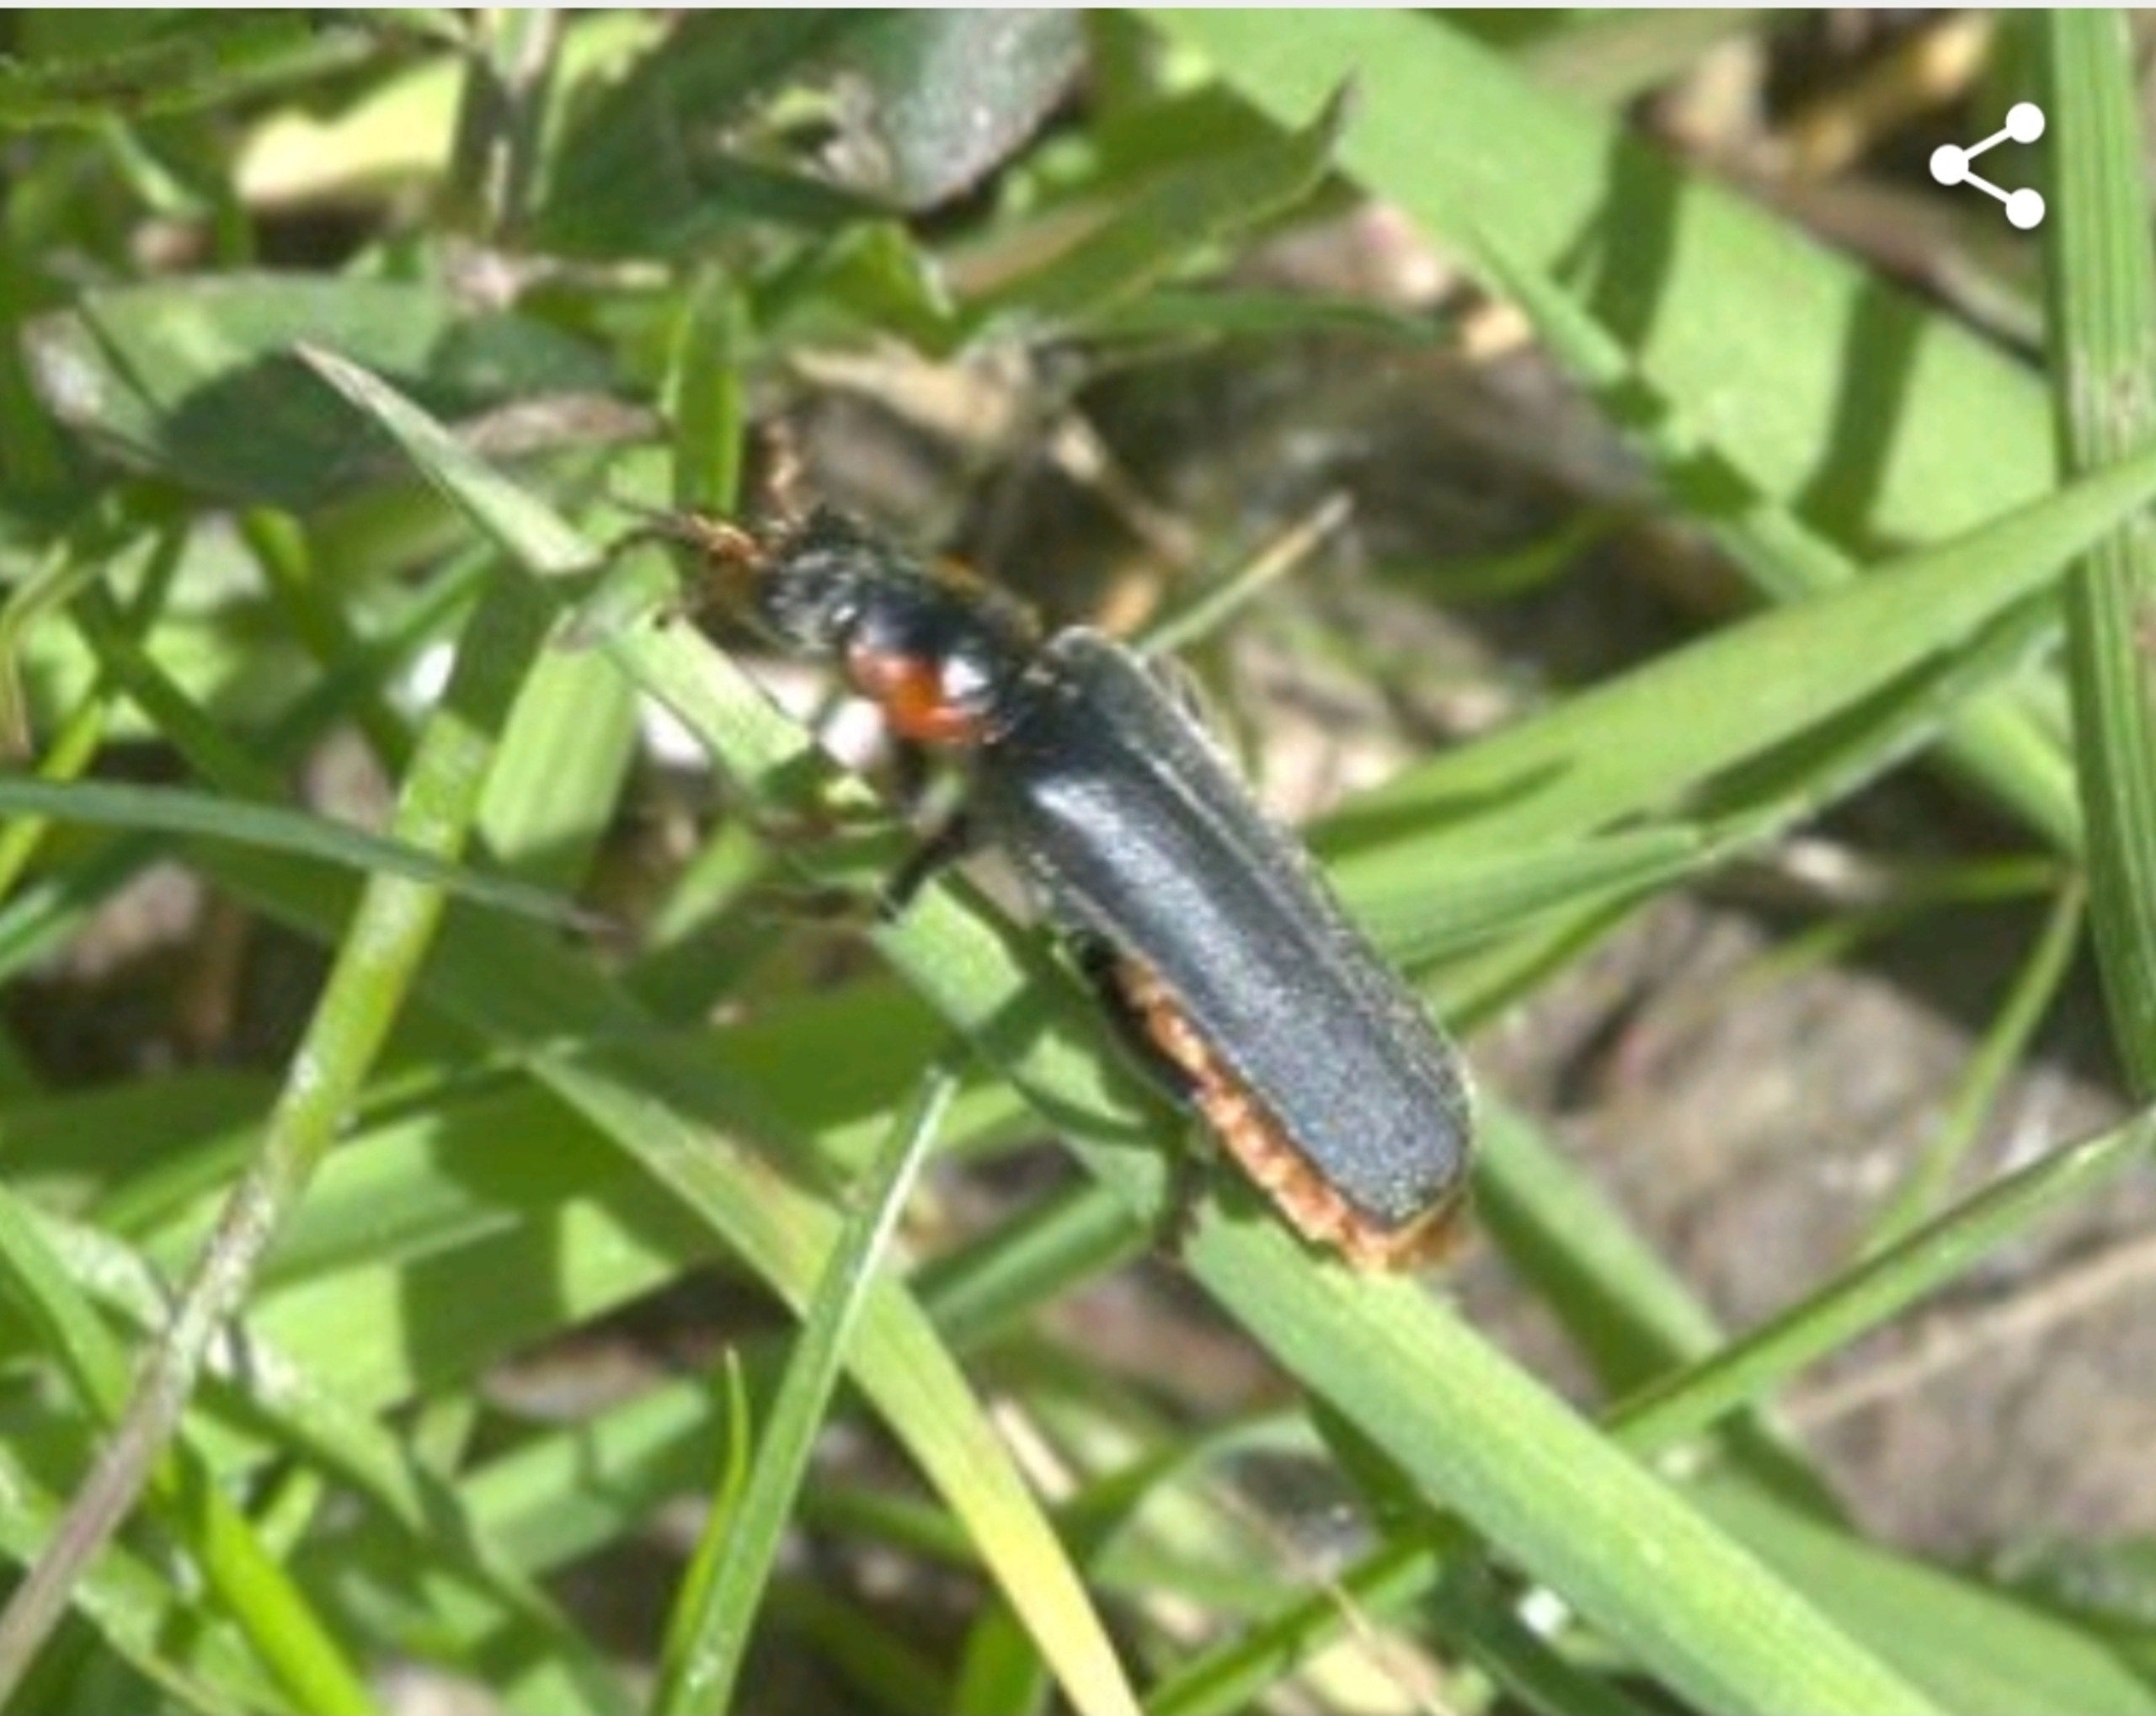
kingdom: Animalia
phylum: Arthropoda
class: Insecta
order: Coleoptera
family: Cantharidae
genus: Cantharis
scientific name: Cantharis fusca
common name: Stor blødvinge
